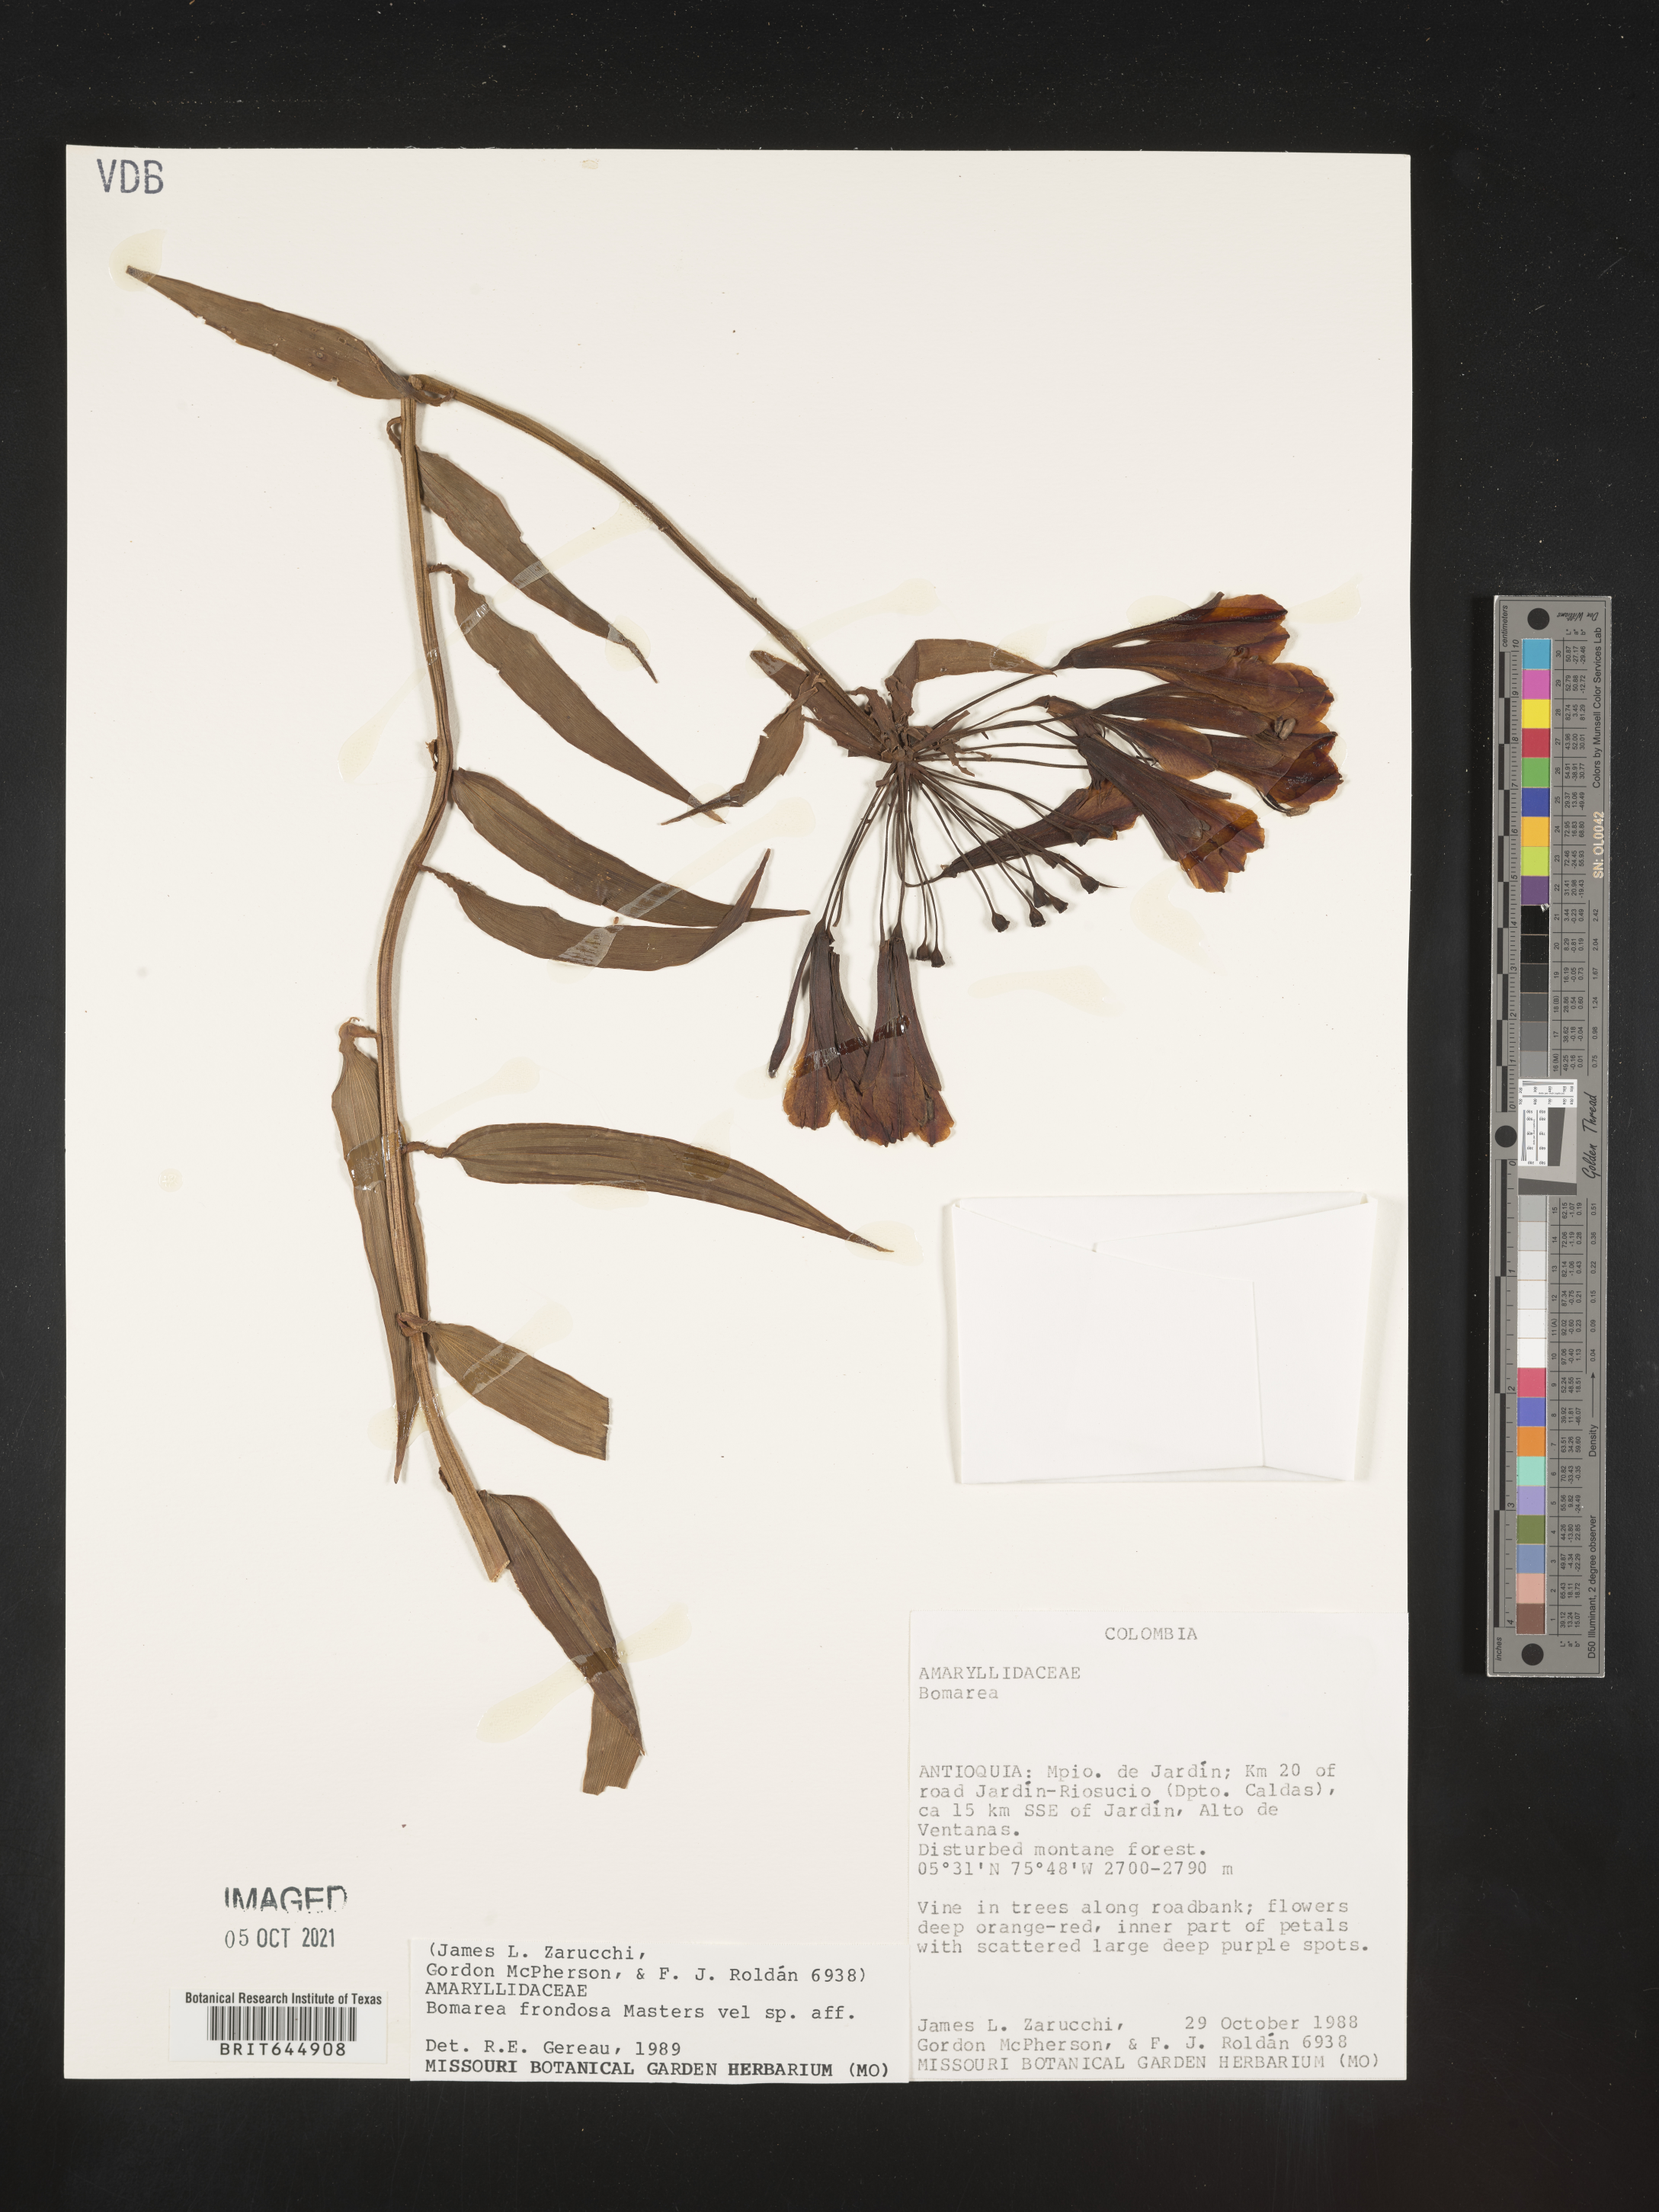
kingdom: Plantae
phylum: Tracheophyta
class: Liliopsida
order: Liliales
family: Alstroemeriaceae
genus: Bomarea
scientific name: Bomarea multiflora
